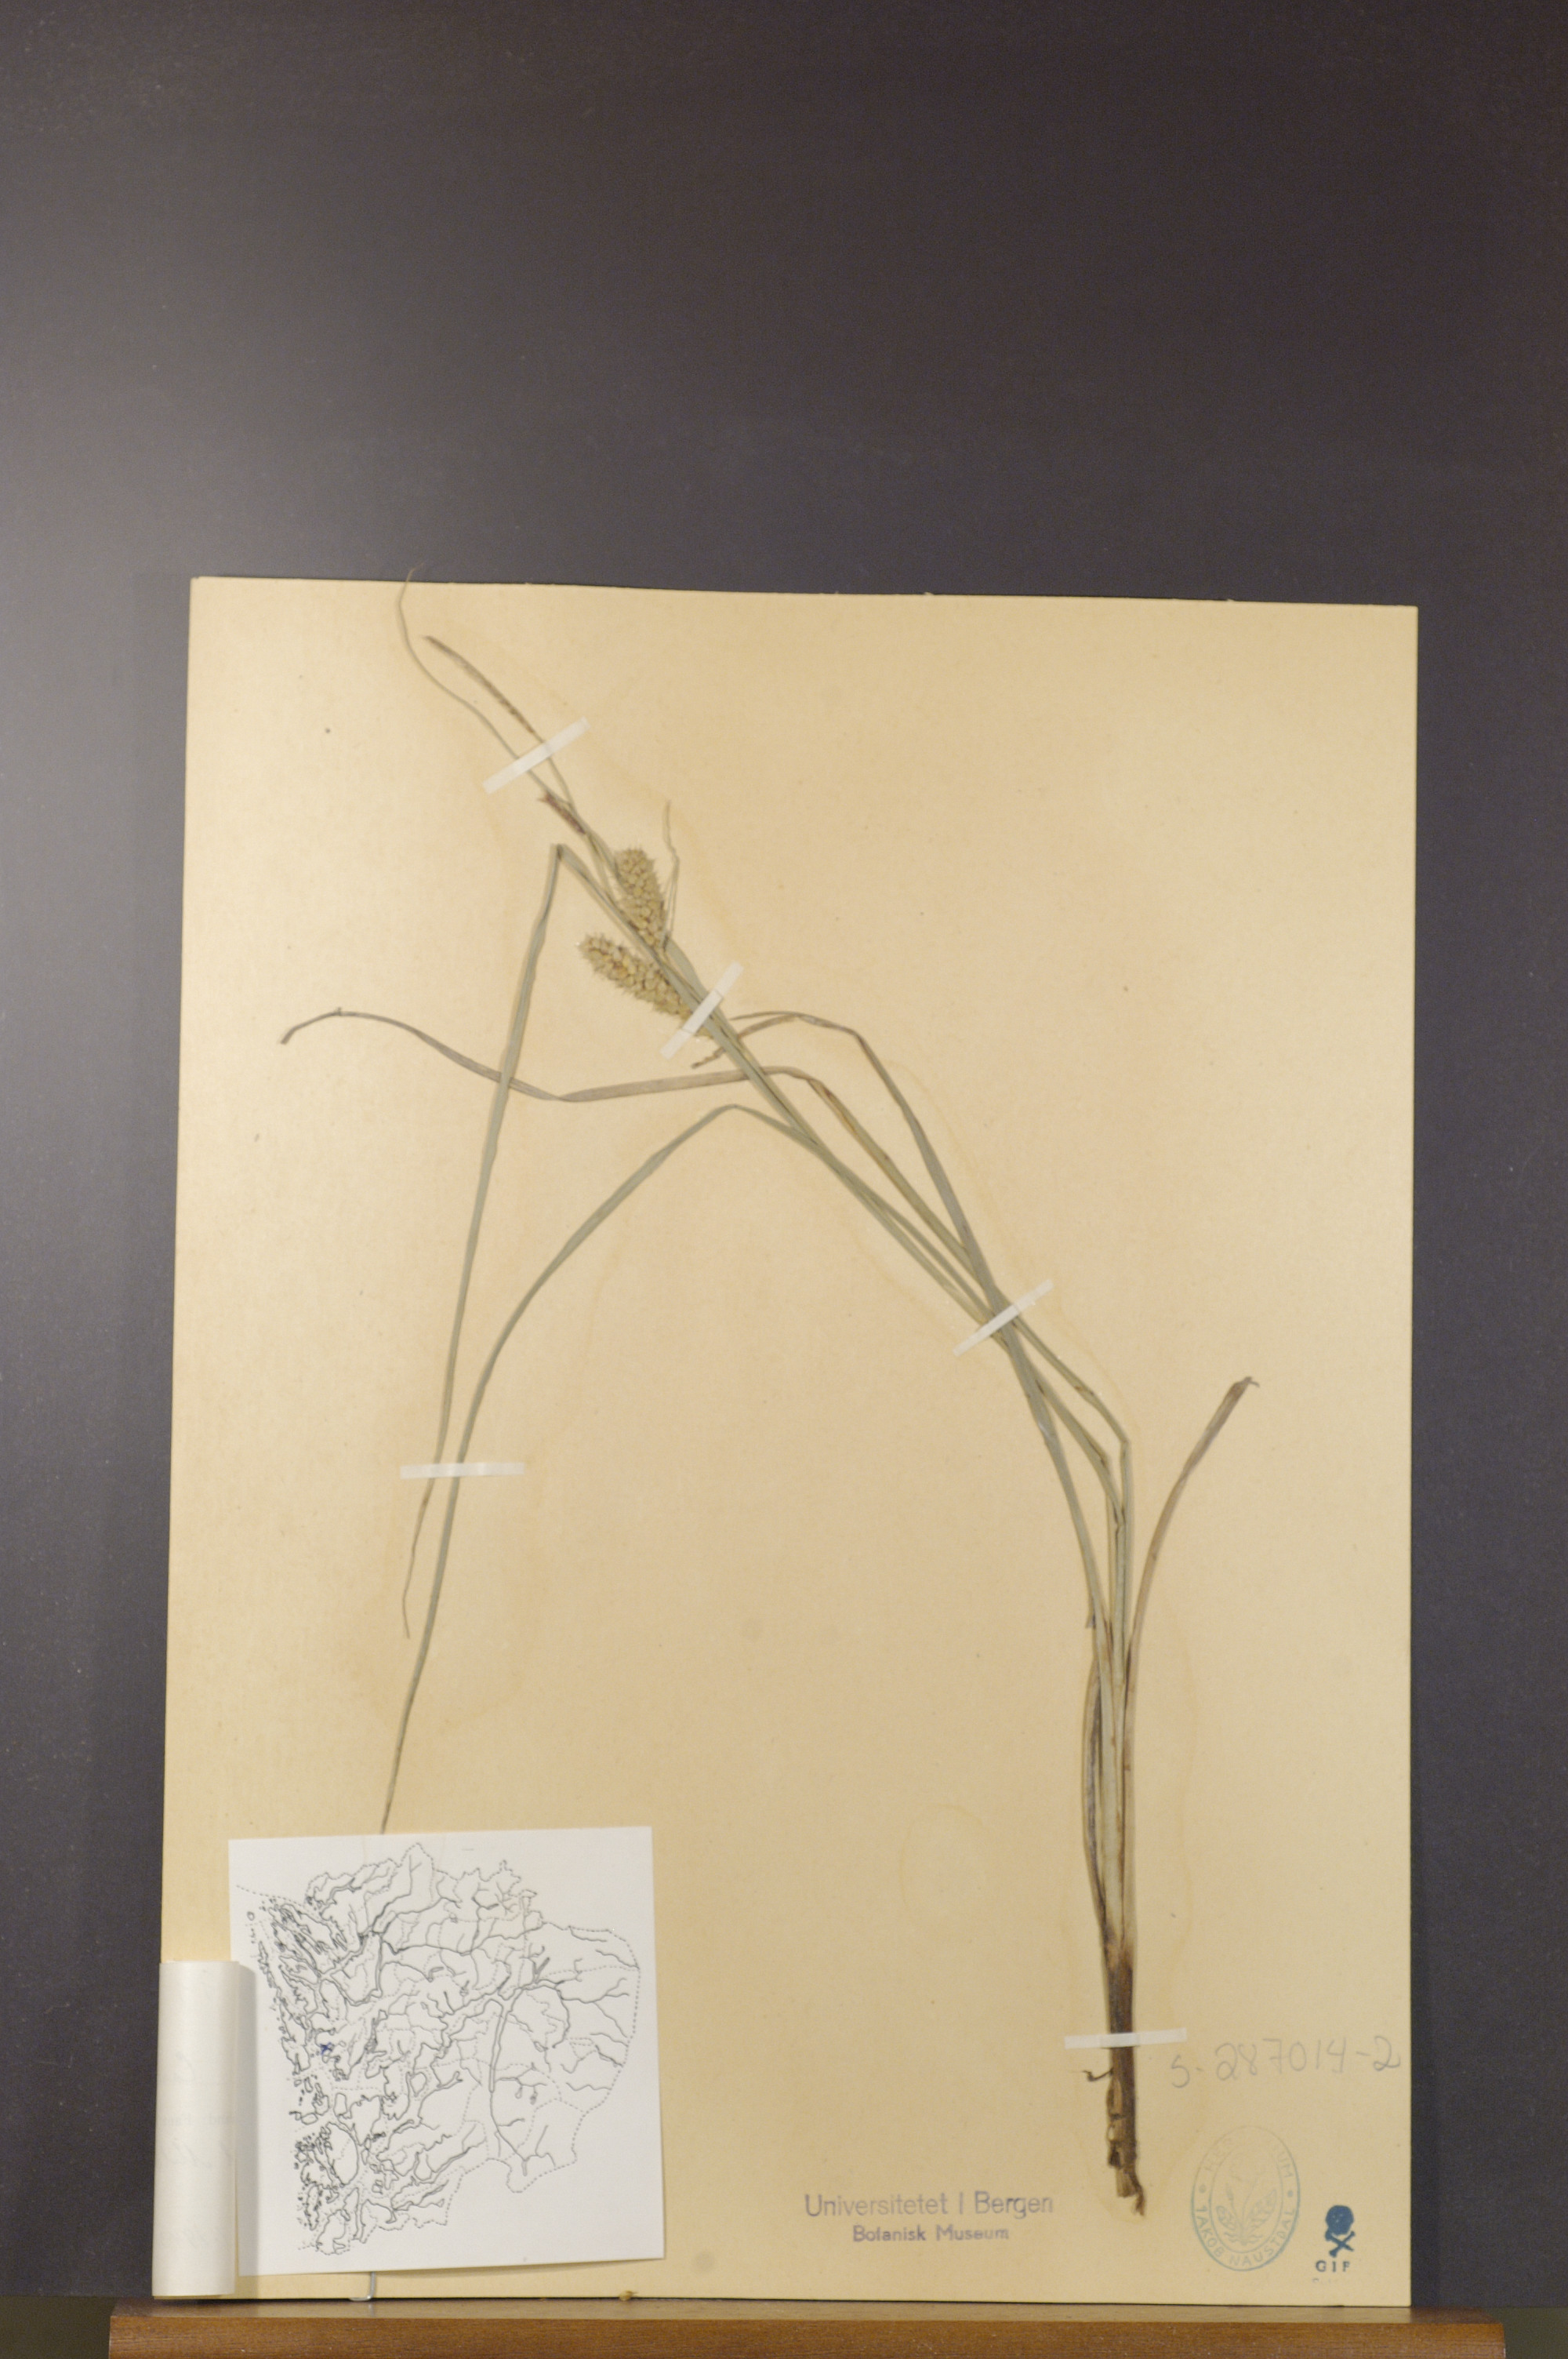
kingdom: Plantae
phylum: Tracheophyta
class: Liliopsida
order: Poales
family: Cyperaceae
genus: Carex
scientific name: Carex rostrata
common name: Bottle sedge
